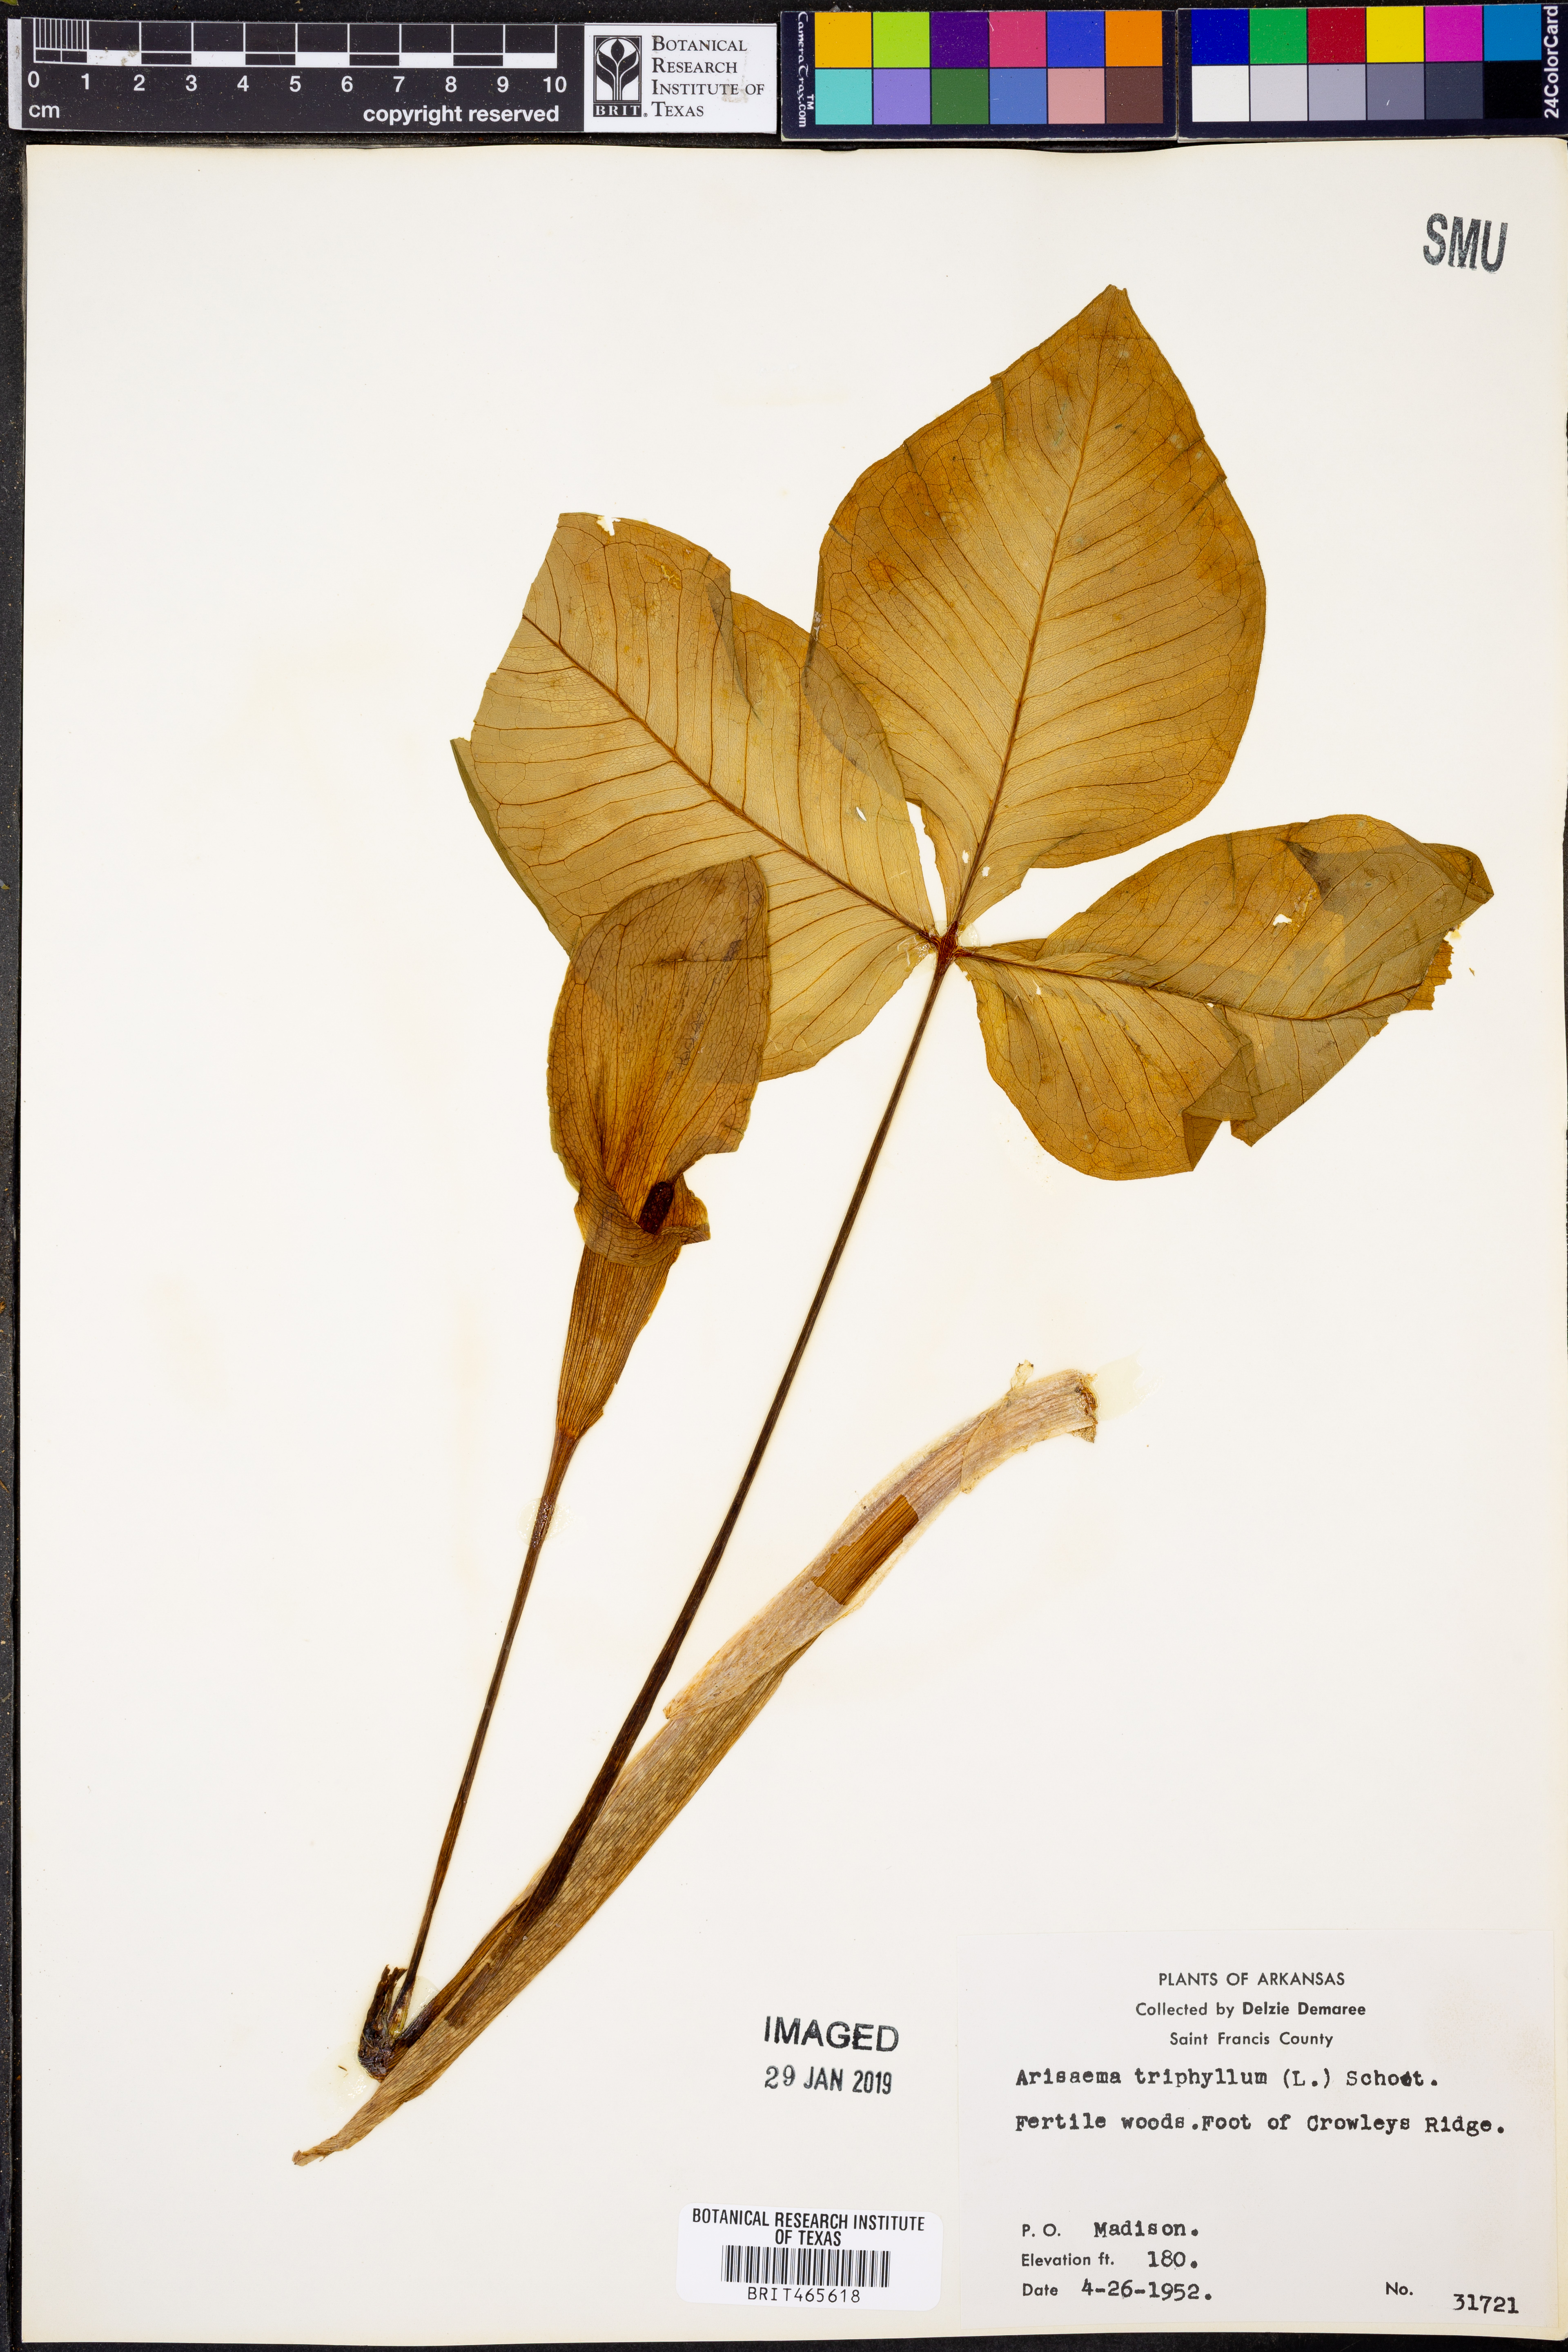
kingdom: Plantae
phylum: Tracheophyta
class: Liliopsida
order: Alismatales
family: Araceae
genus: Arisaema
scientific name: Arisaema triphyllum
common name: Jack-in-the-pulpit
